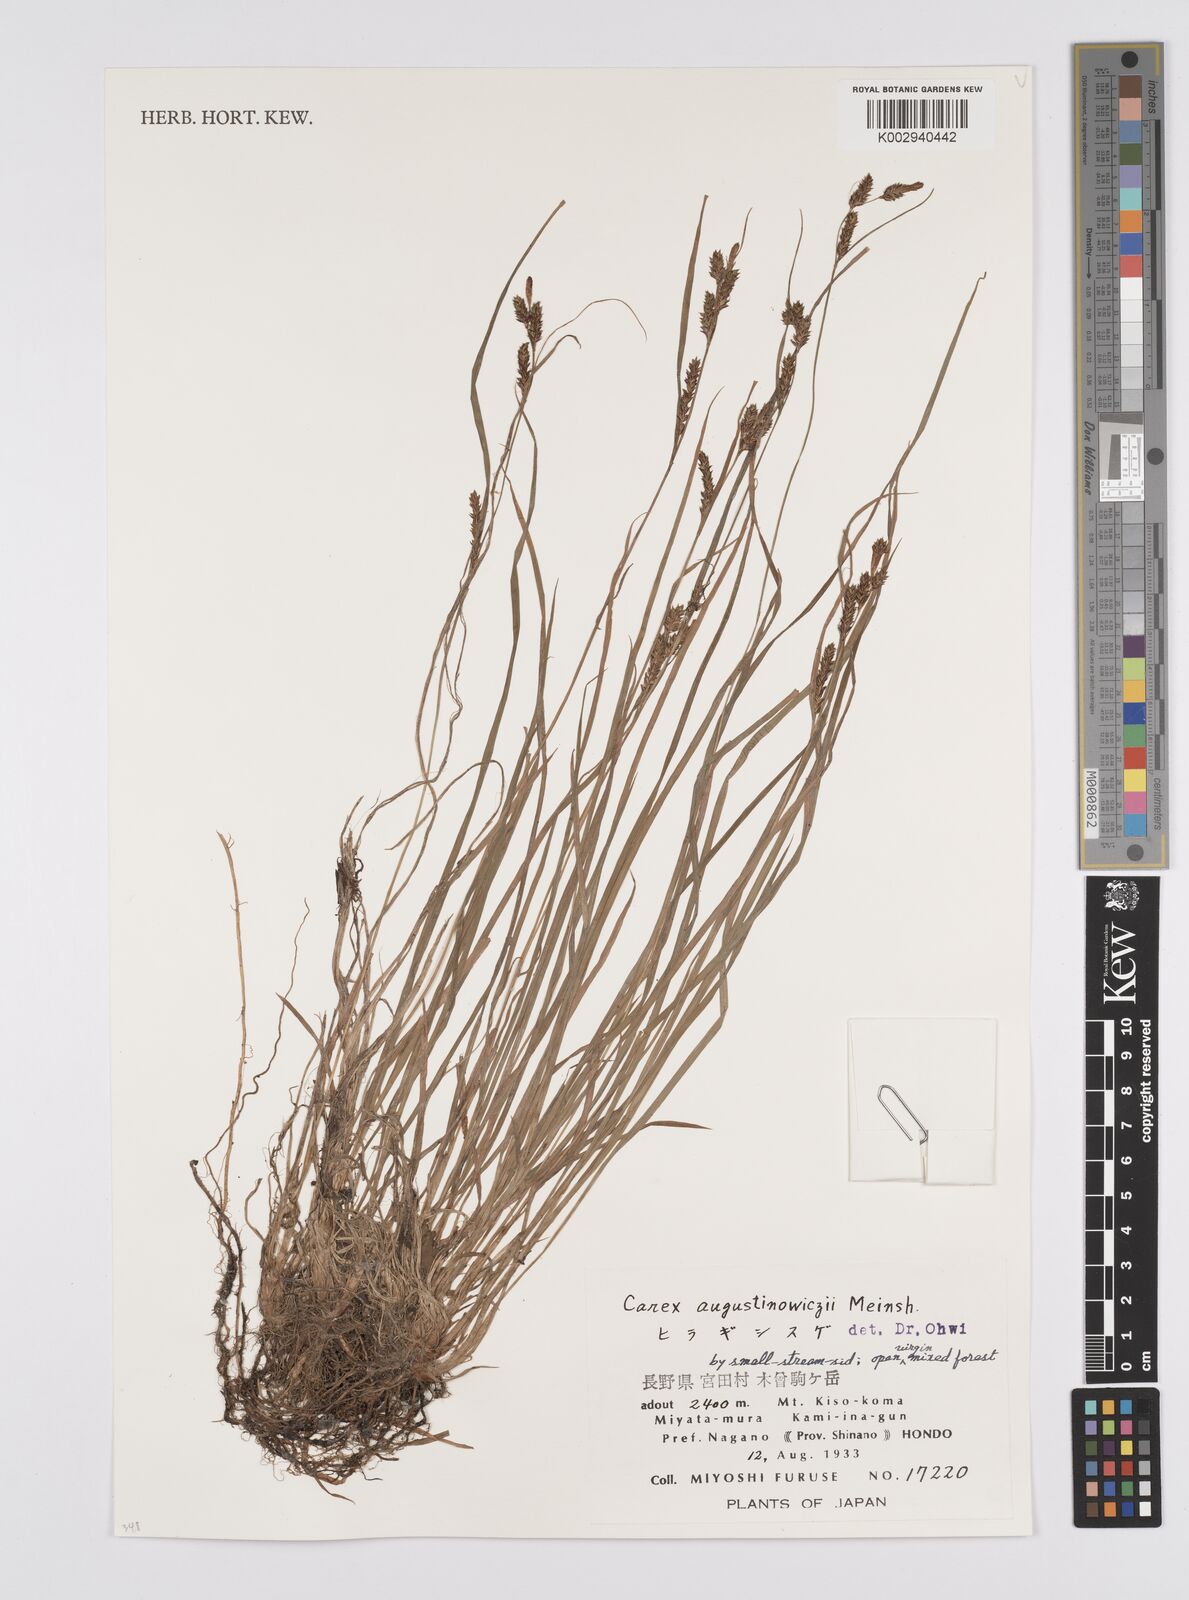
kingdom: Plantae
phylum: Tracheophyta
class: Liliopsida
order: Poales
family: Cyperaceae
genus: Carex
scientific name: Carex augustinowiczii
